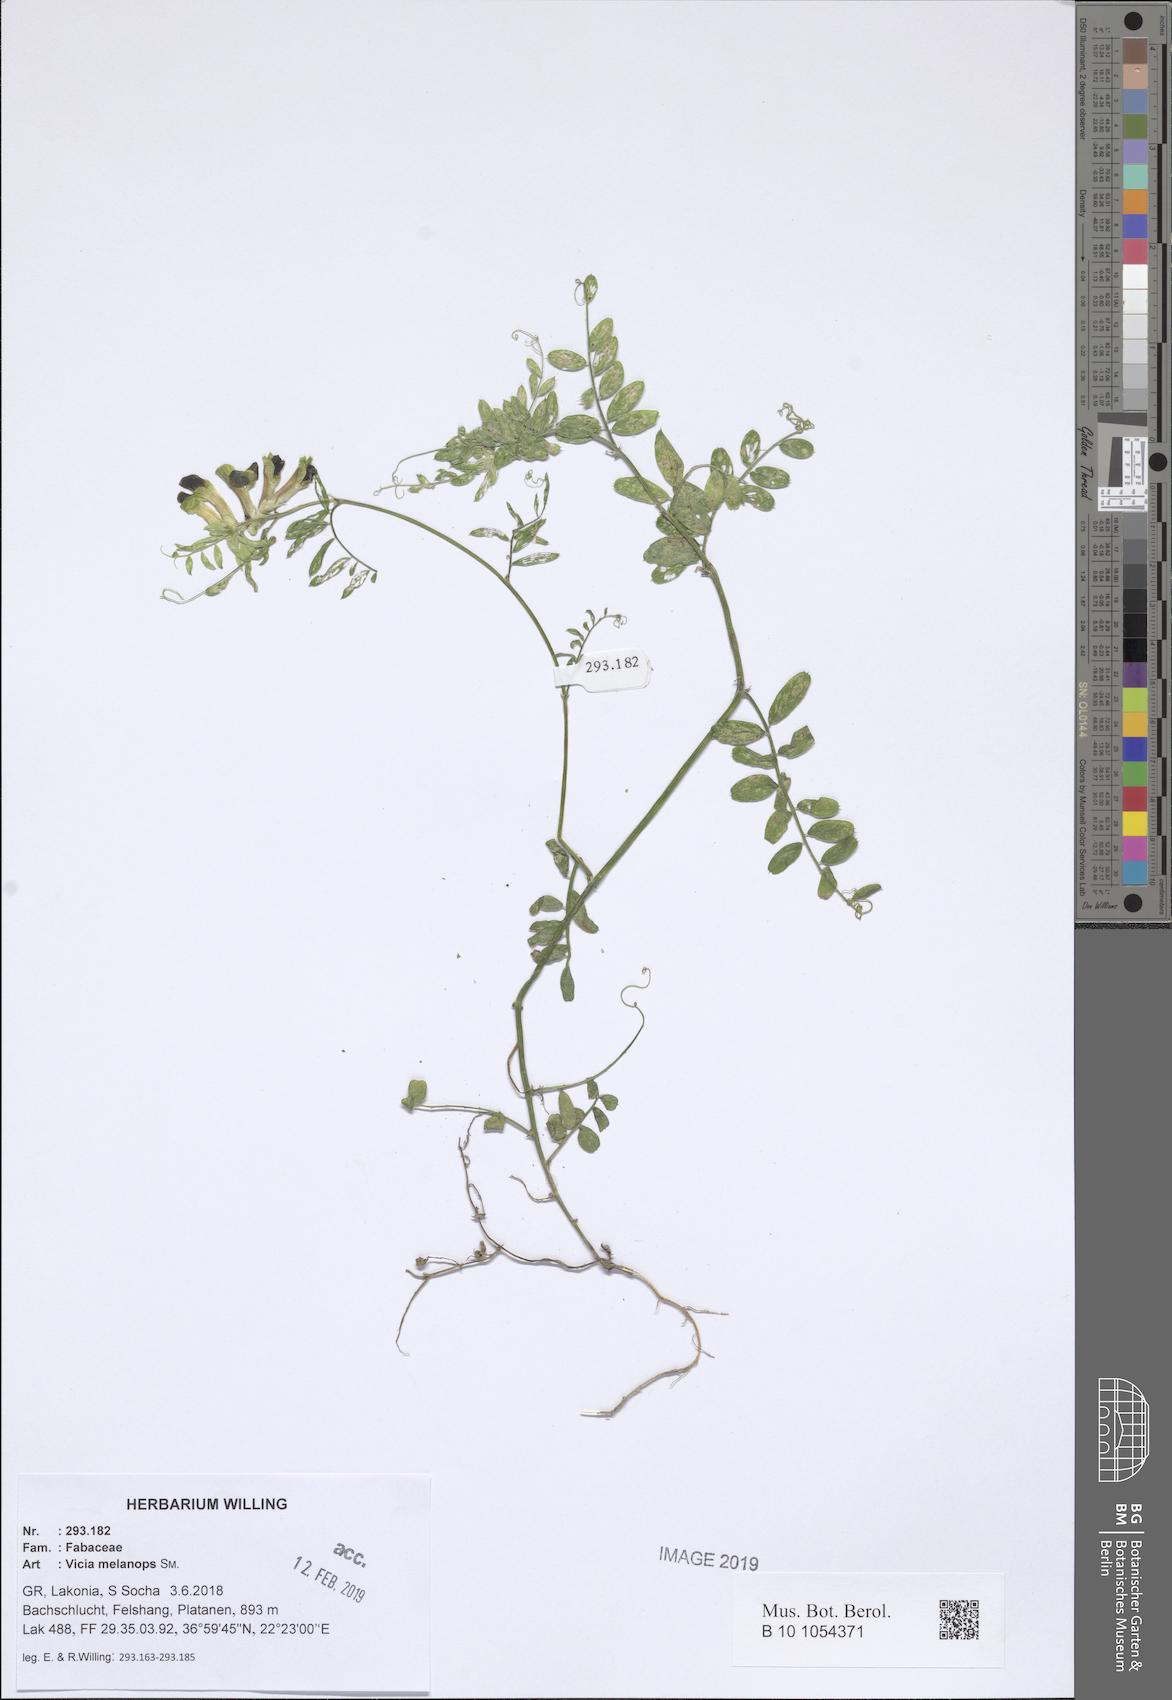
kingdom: Plantae
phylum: Tracheophyta
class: Magnoliopsida
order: Fabales
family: Fabaceae
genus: Vicia
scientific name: Vicia melanops
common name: Black-eyed vetch
